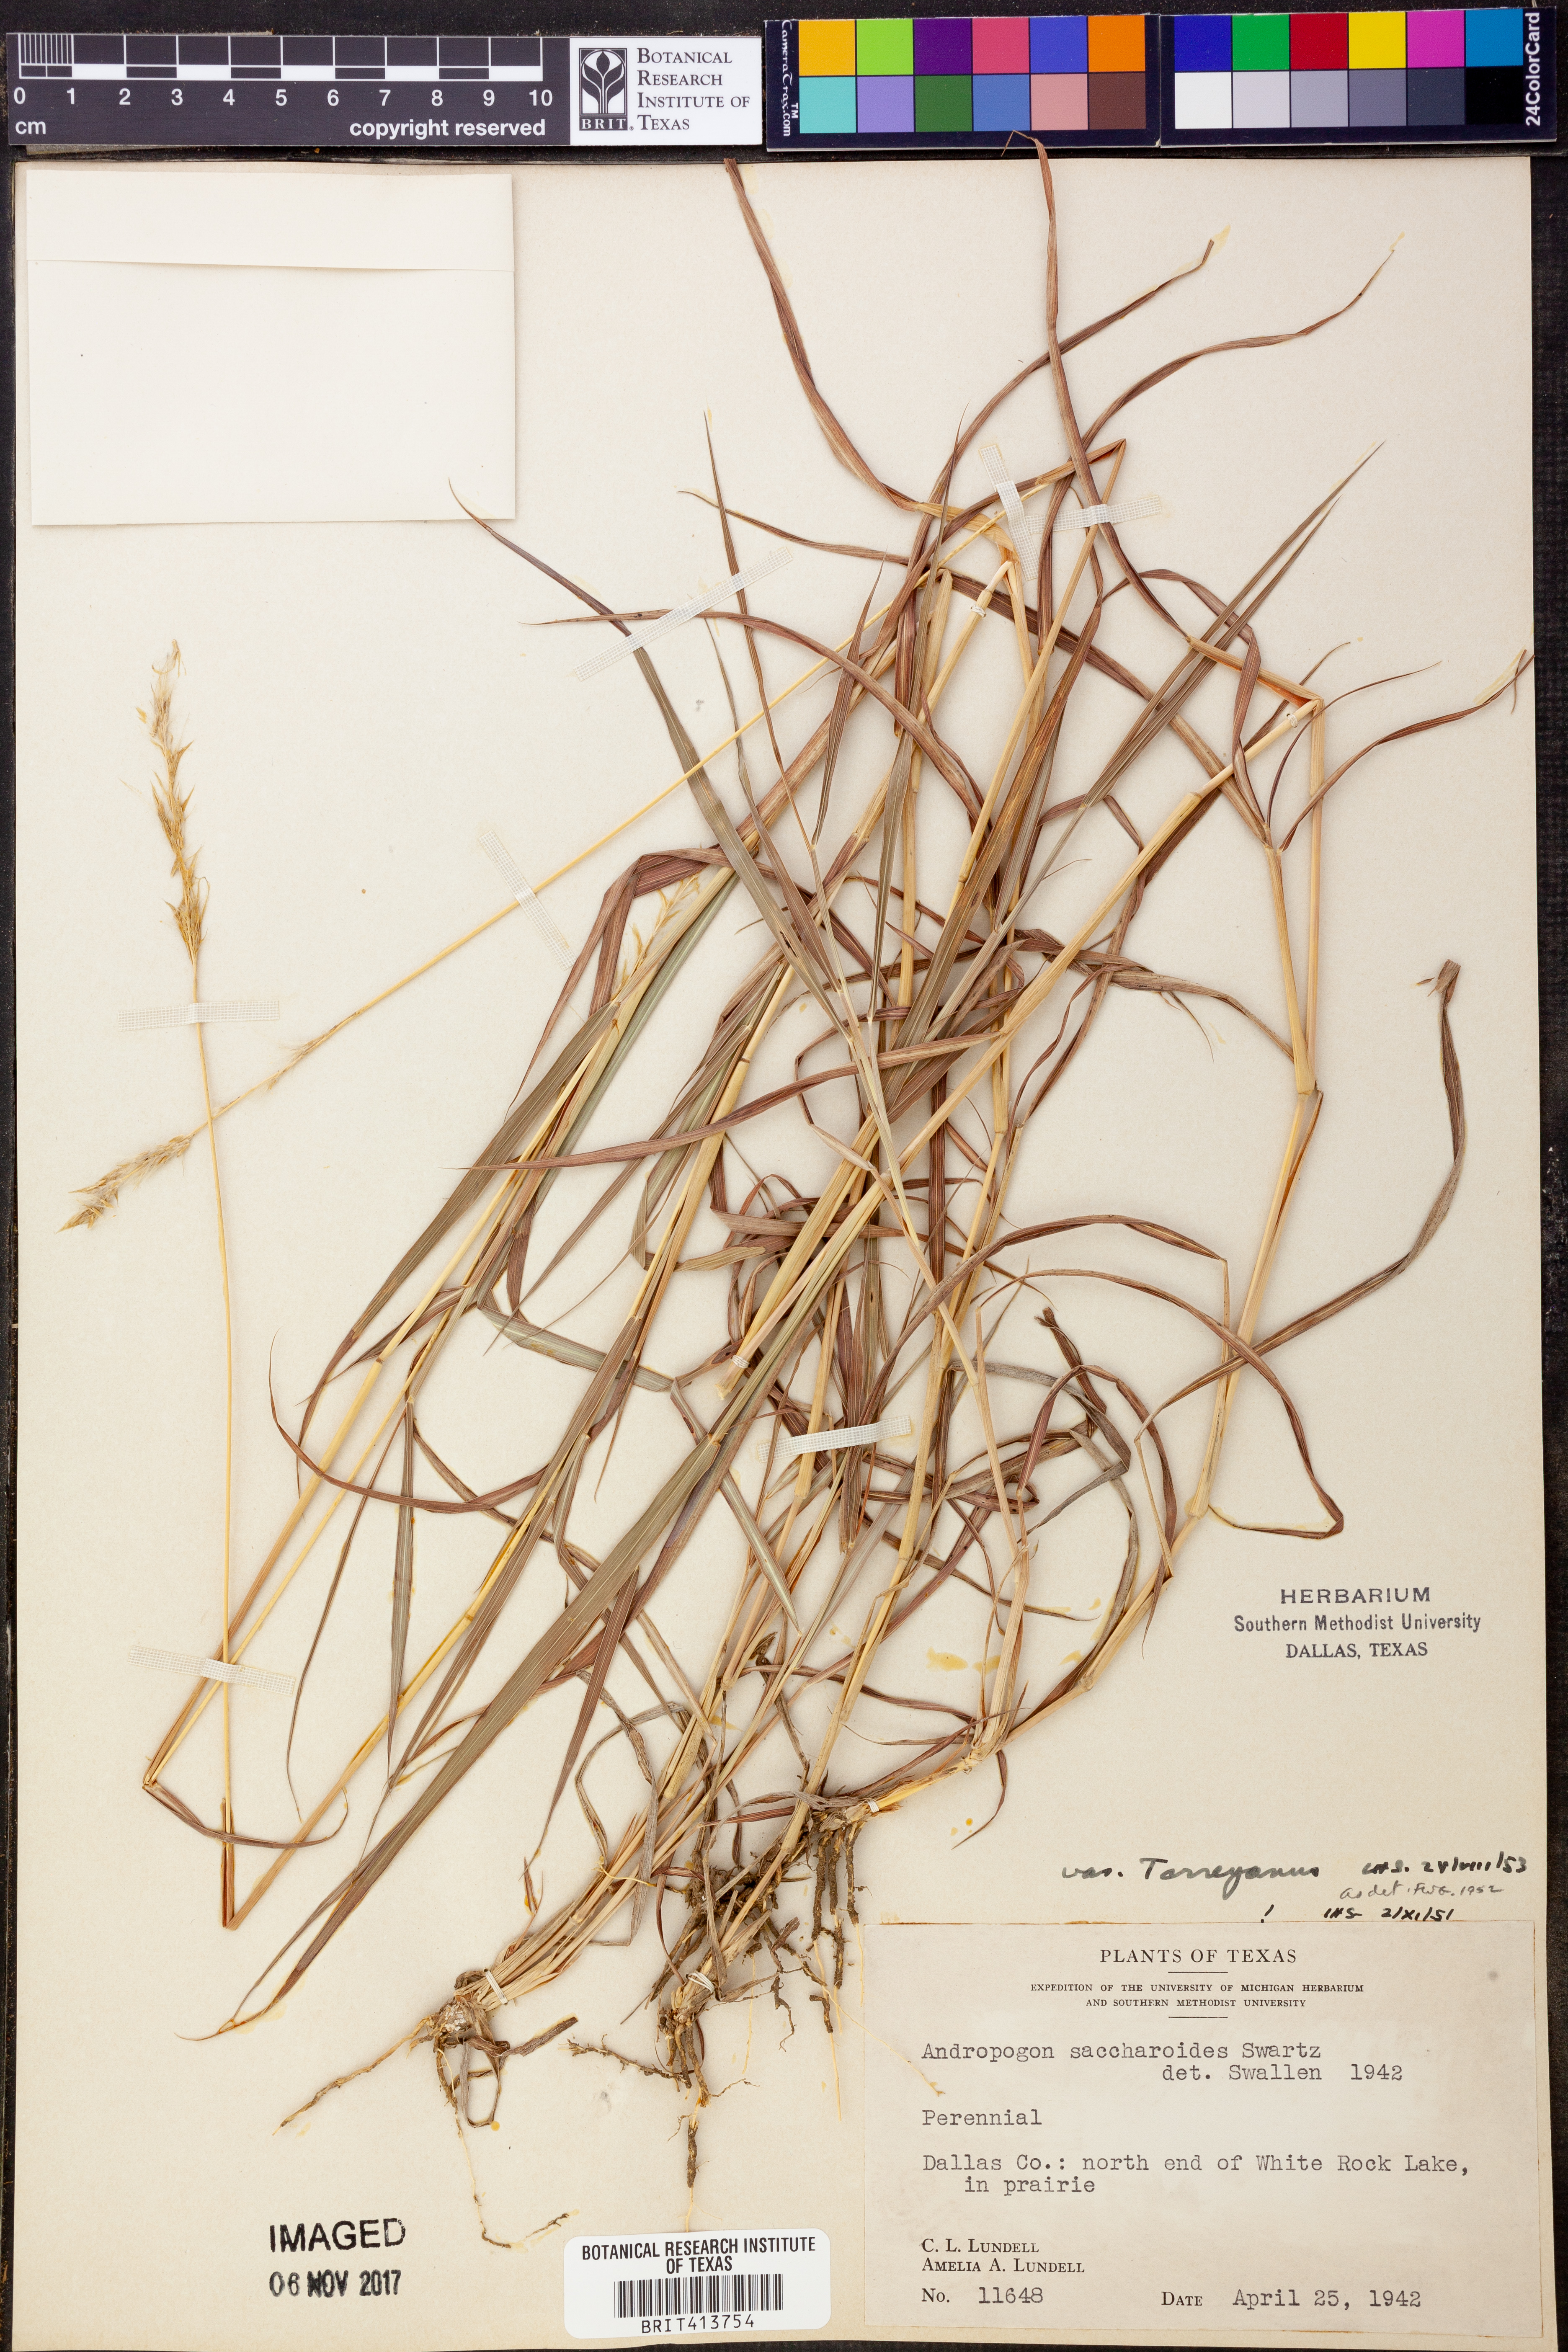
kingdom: Plantae
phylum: Tracheophyta
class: Liliopsida
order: Poales
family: Poaceae
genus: Bothriochloa
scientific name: Bothriochloa torreyana
